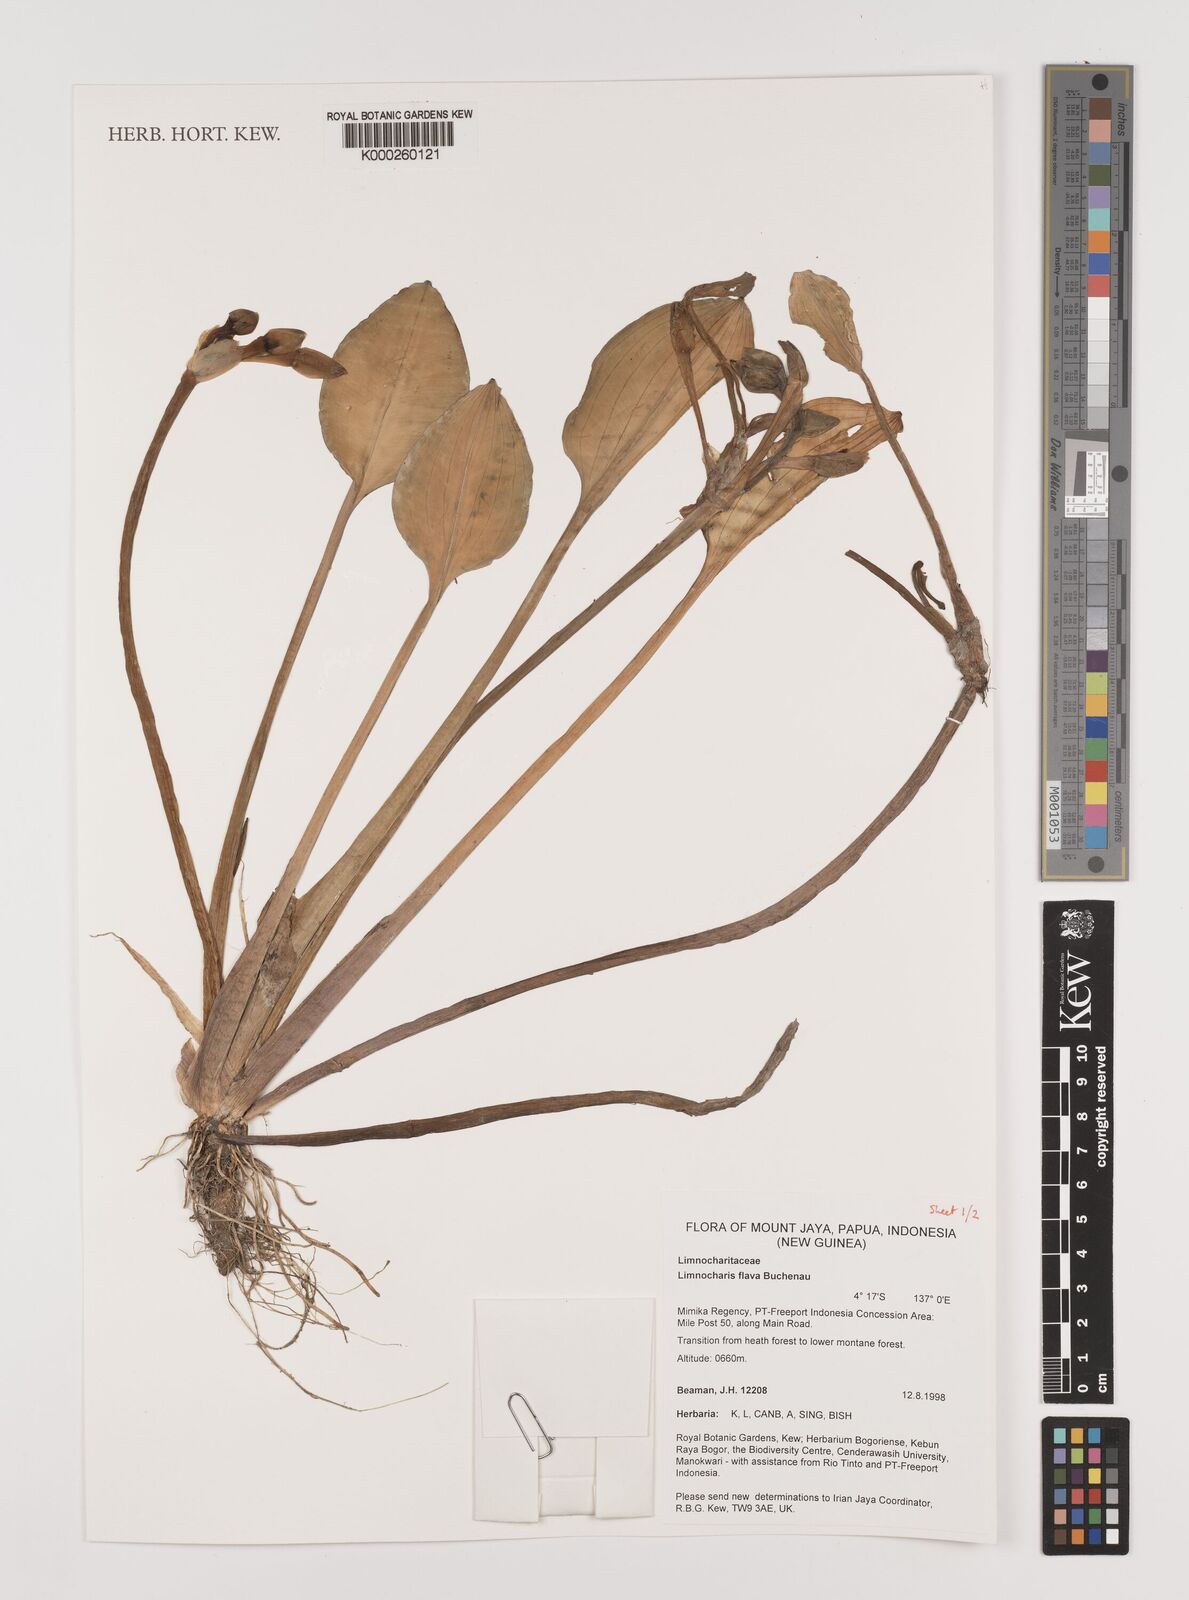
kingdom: Plantae
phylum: Tracheophyta
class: Liliopsida
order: Alismatales
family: Alismataceae
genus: Limnocharis
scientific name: Limnocharis flava
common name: Sawah-flower-rush
